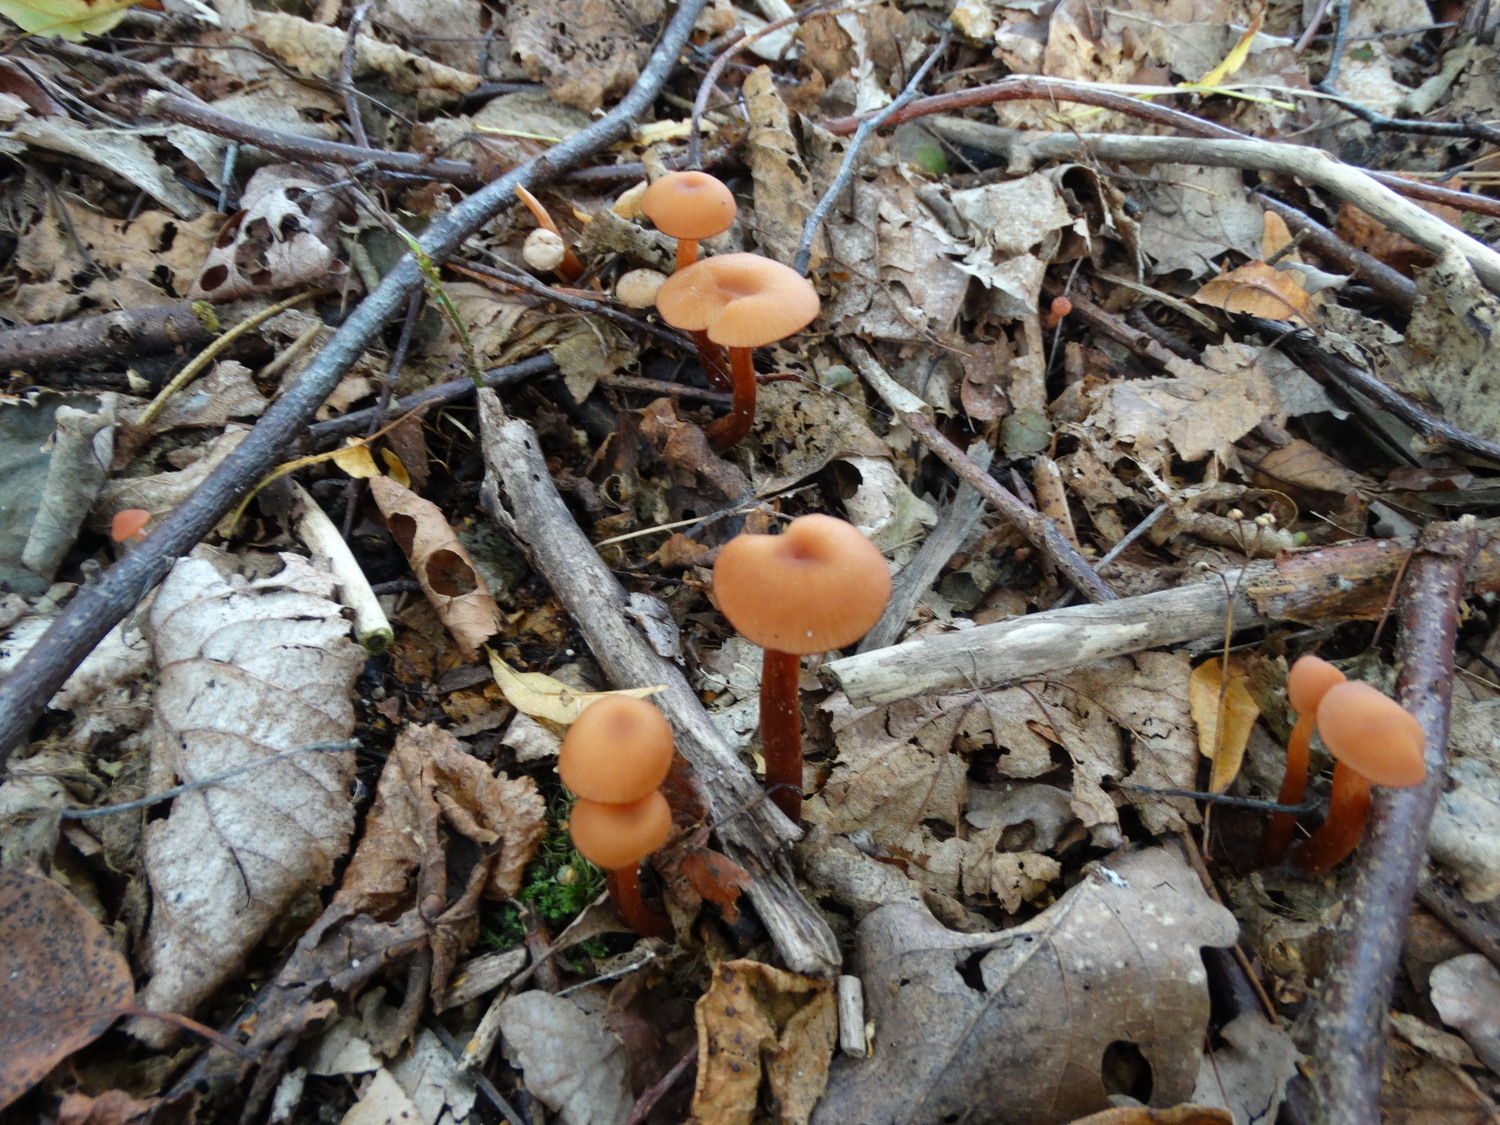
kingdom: Fungi
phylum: Basidiomycota
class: Agaricomycetes
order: Agaricales
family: Hydnangiaceae
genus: Laccaria
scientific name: Laccaria laccata
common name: rød ametysthat
